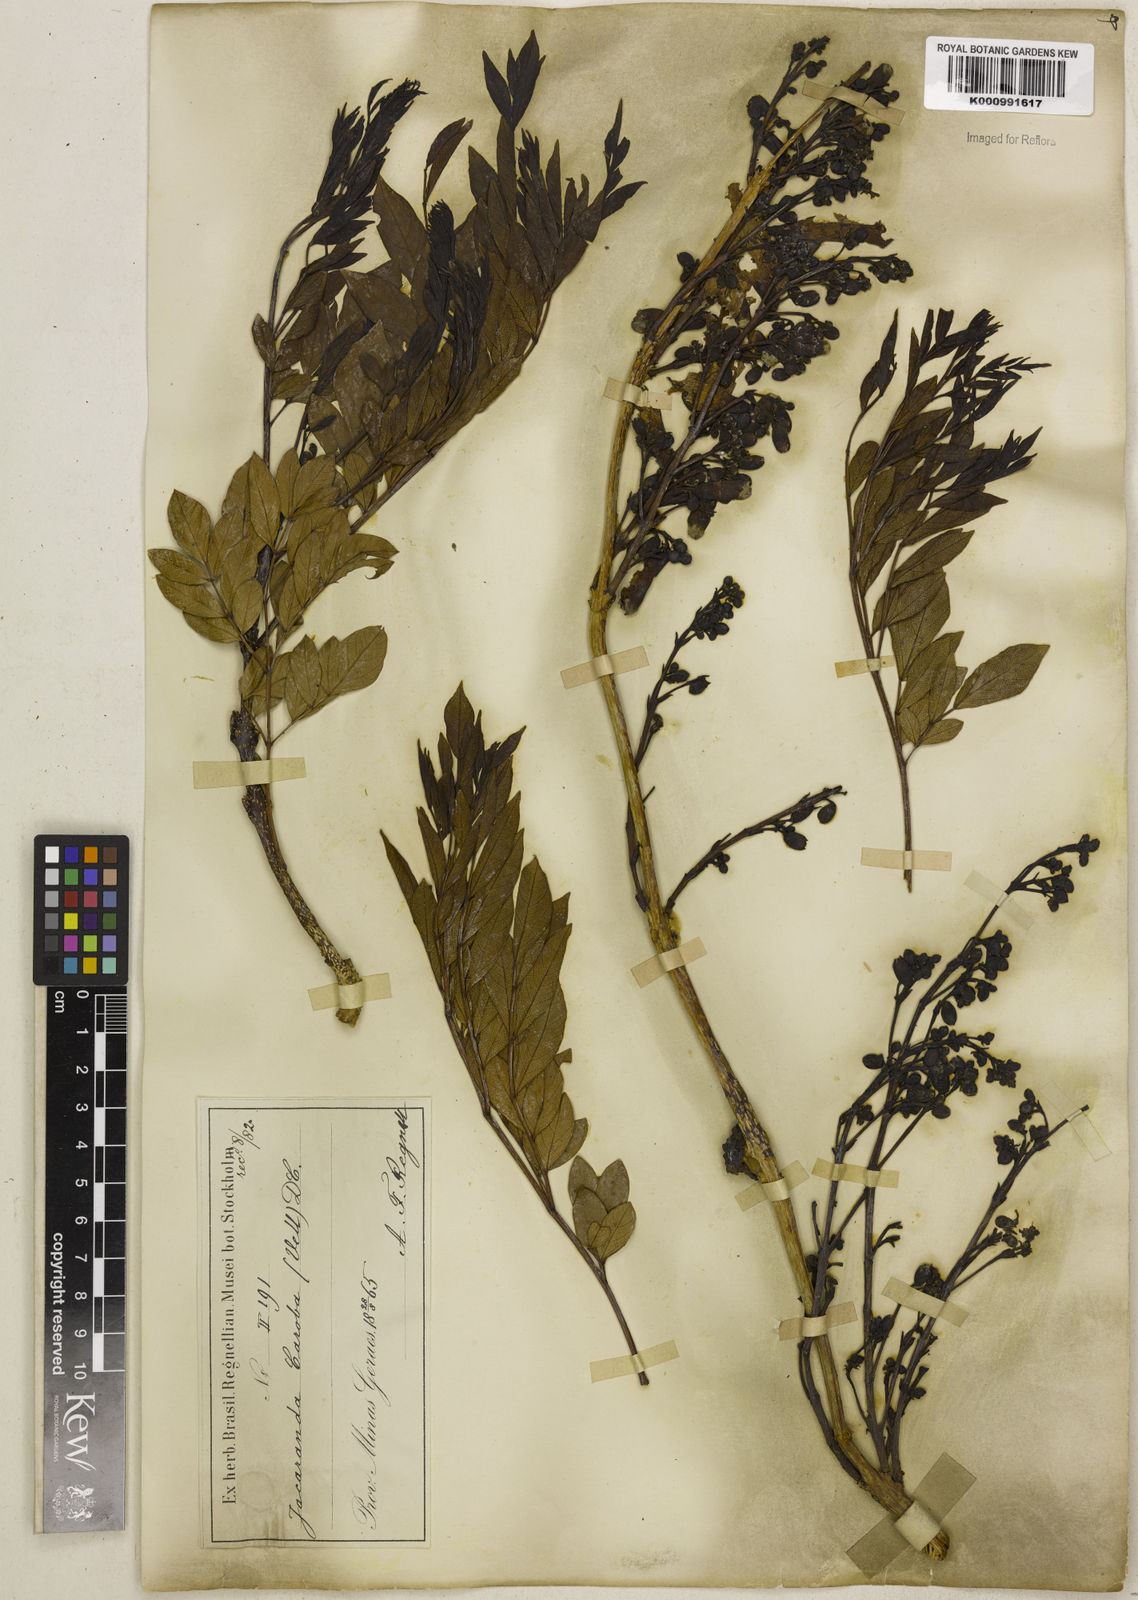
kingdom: Plantae
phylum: Tracheophyta
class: Magnoliopsida
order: Lamiales
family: Bignoniaceae
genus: Jacaranda
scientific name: Jacaranda caroba
